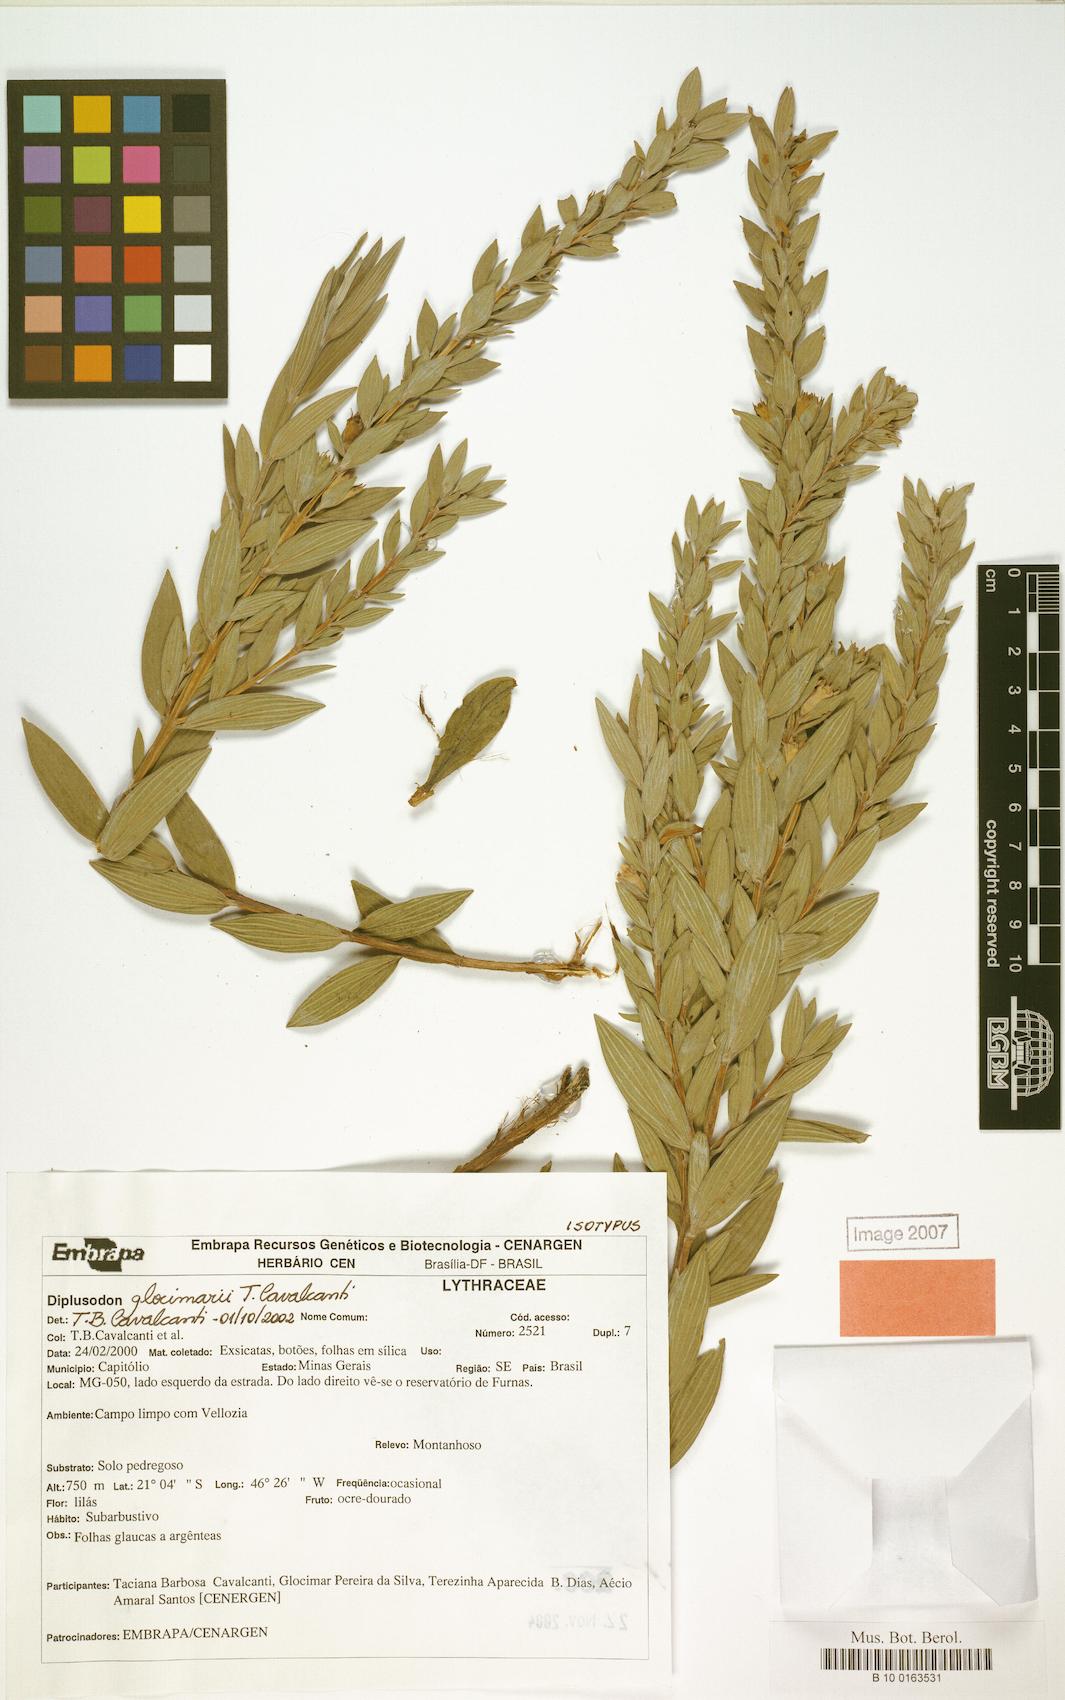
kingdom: Plantae
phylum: Tracheophyta
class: Magnoliopsida
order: Myrtales
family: Lythraceae
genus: Diplusodon
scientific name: Diplusodon glocimarii
